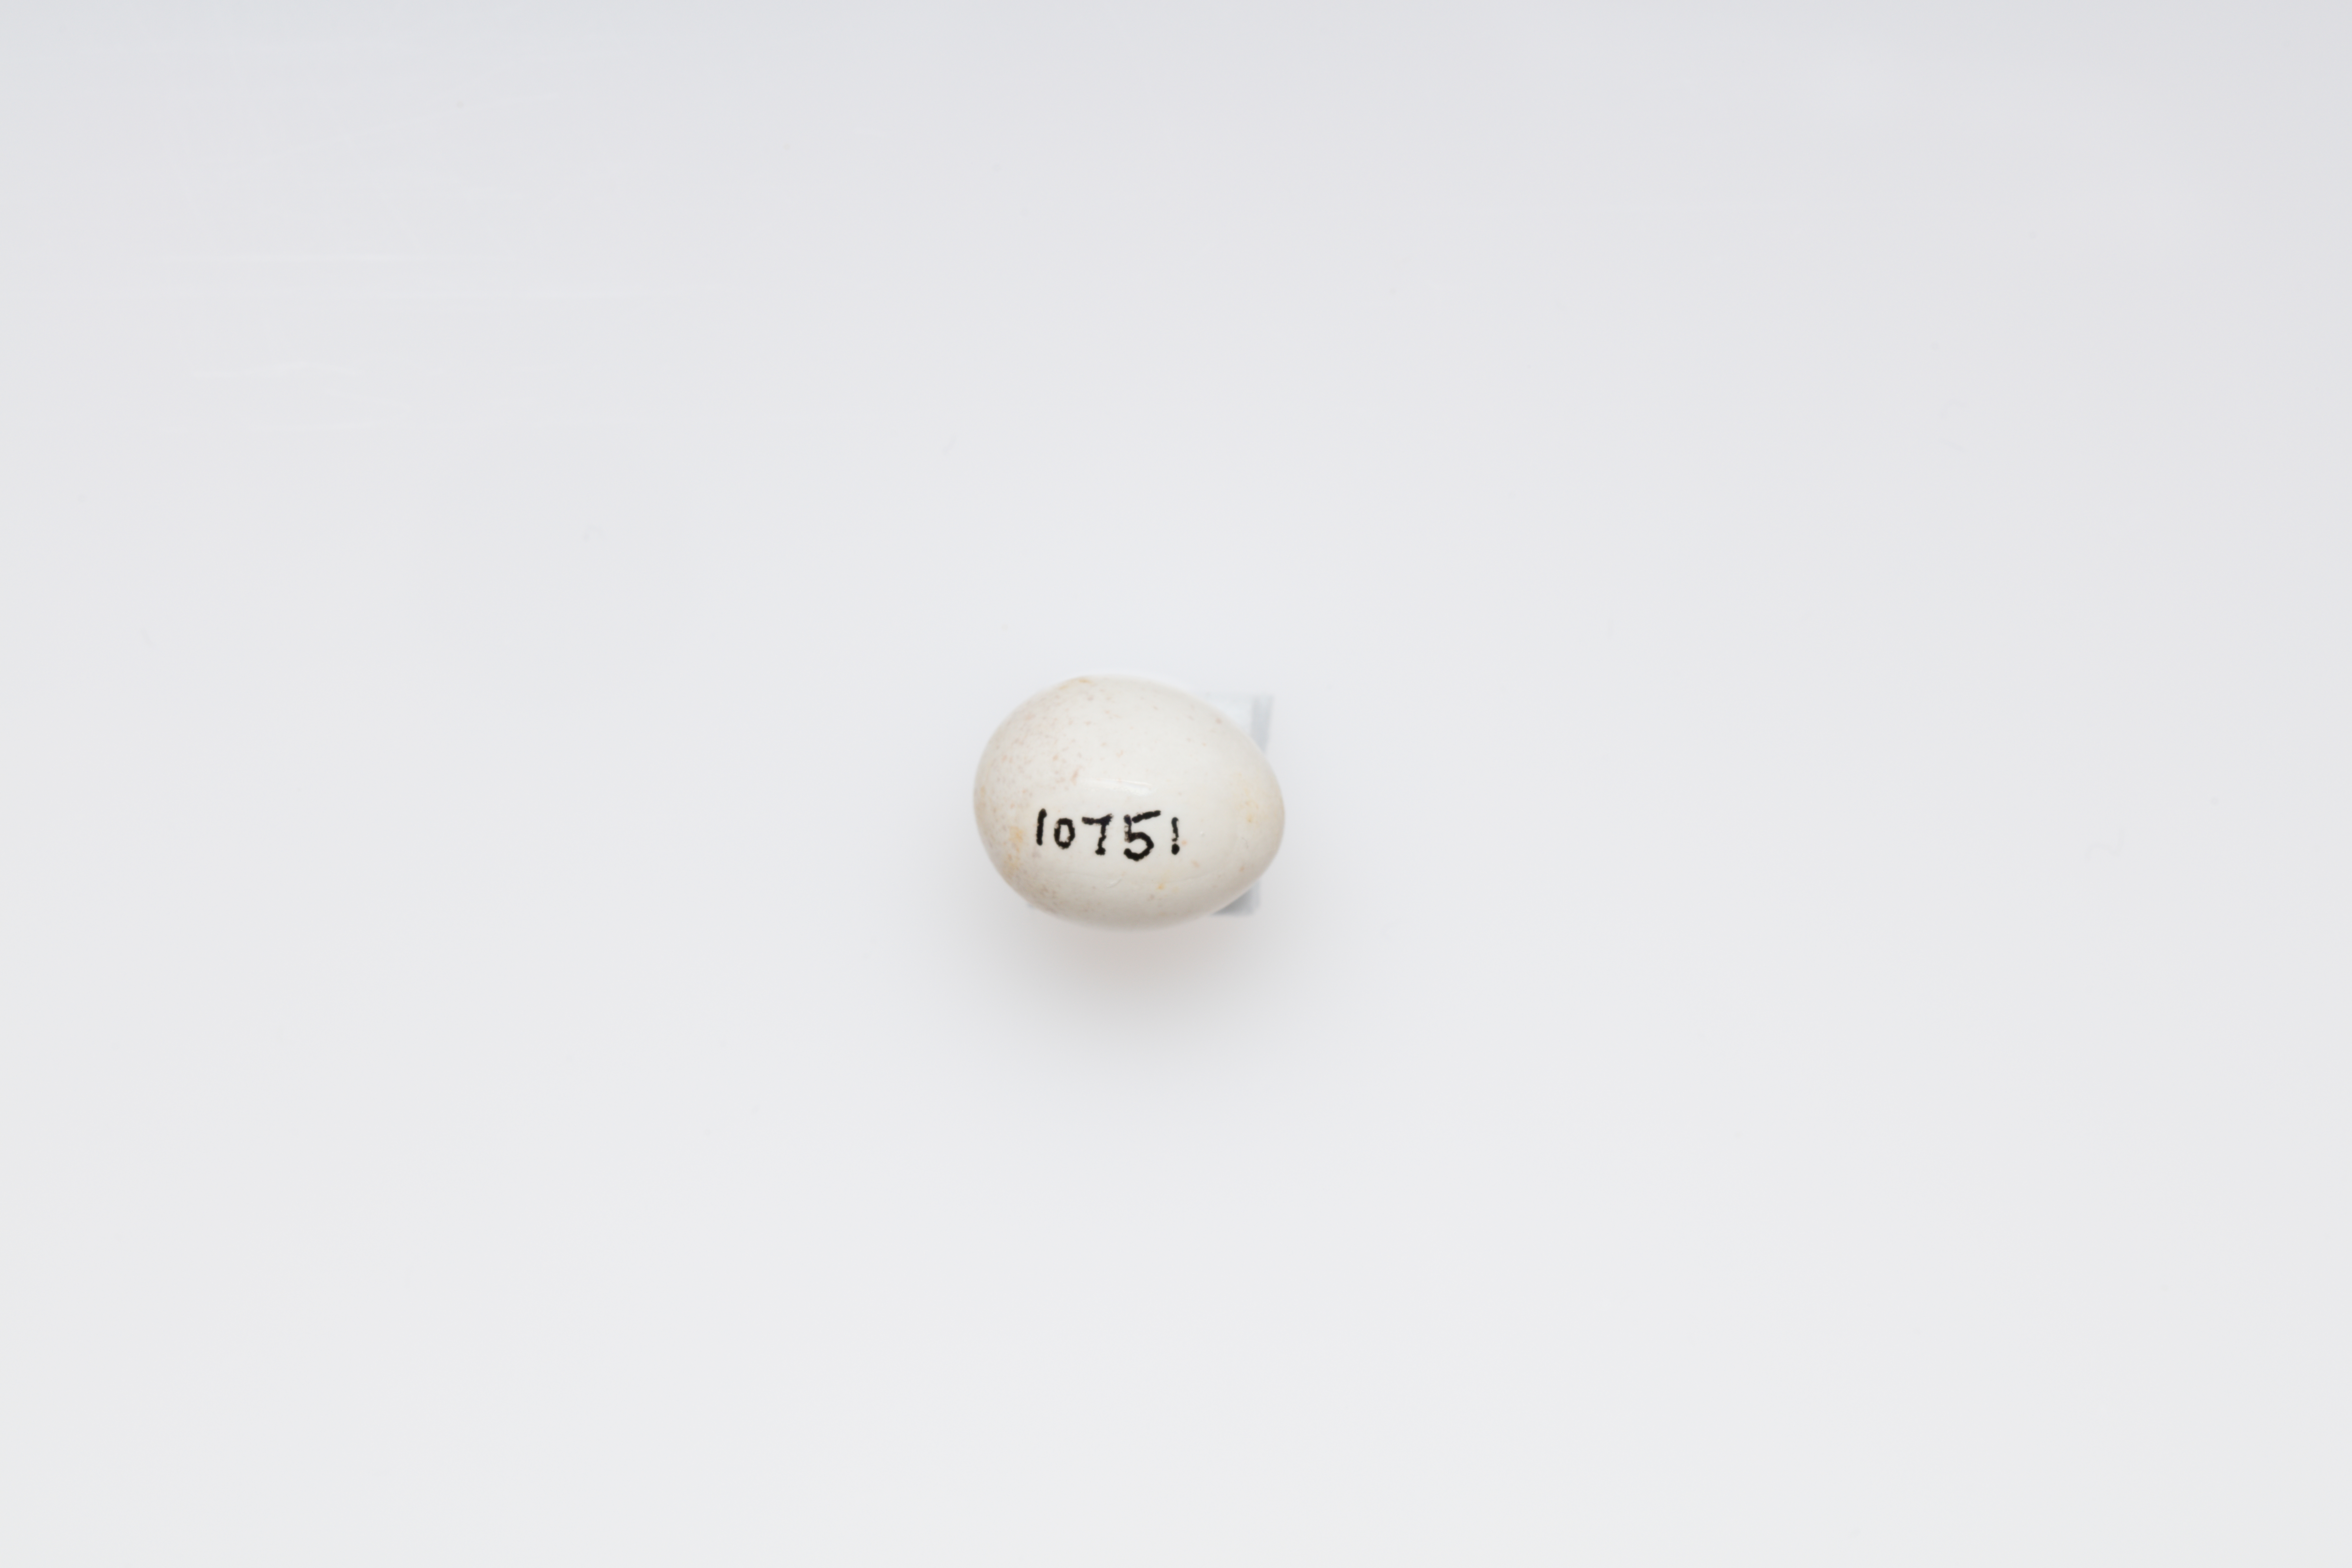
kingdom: Animalia
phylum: Chordata
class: Aves
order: Passeriformes
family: Aegithalidae
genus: Aegithalos
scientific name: Aegithalos caudatus
